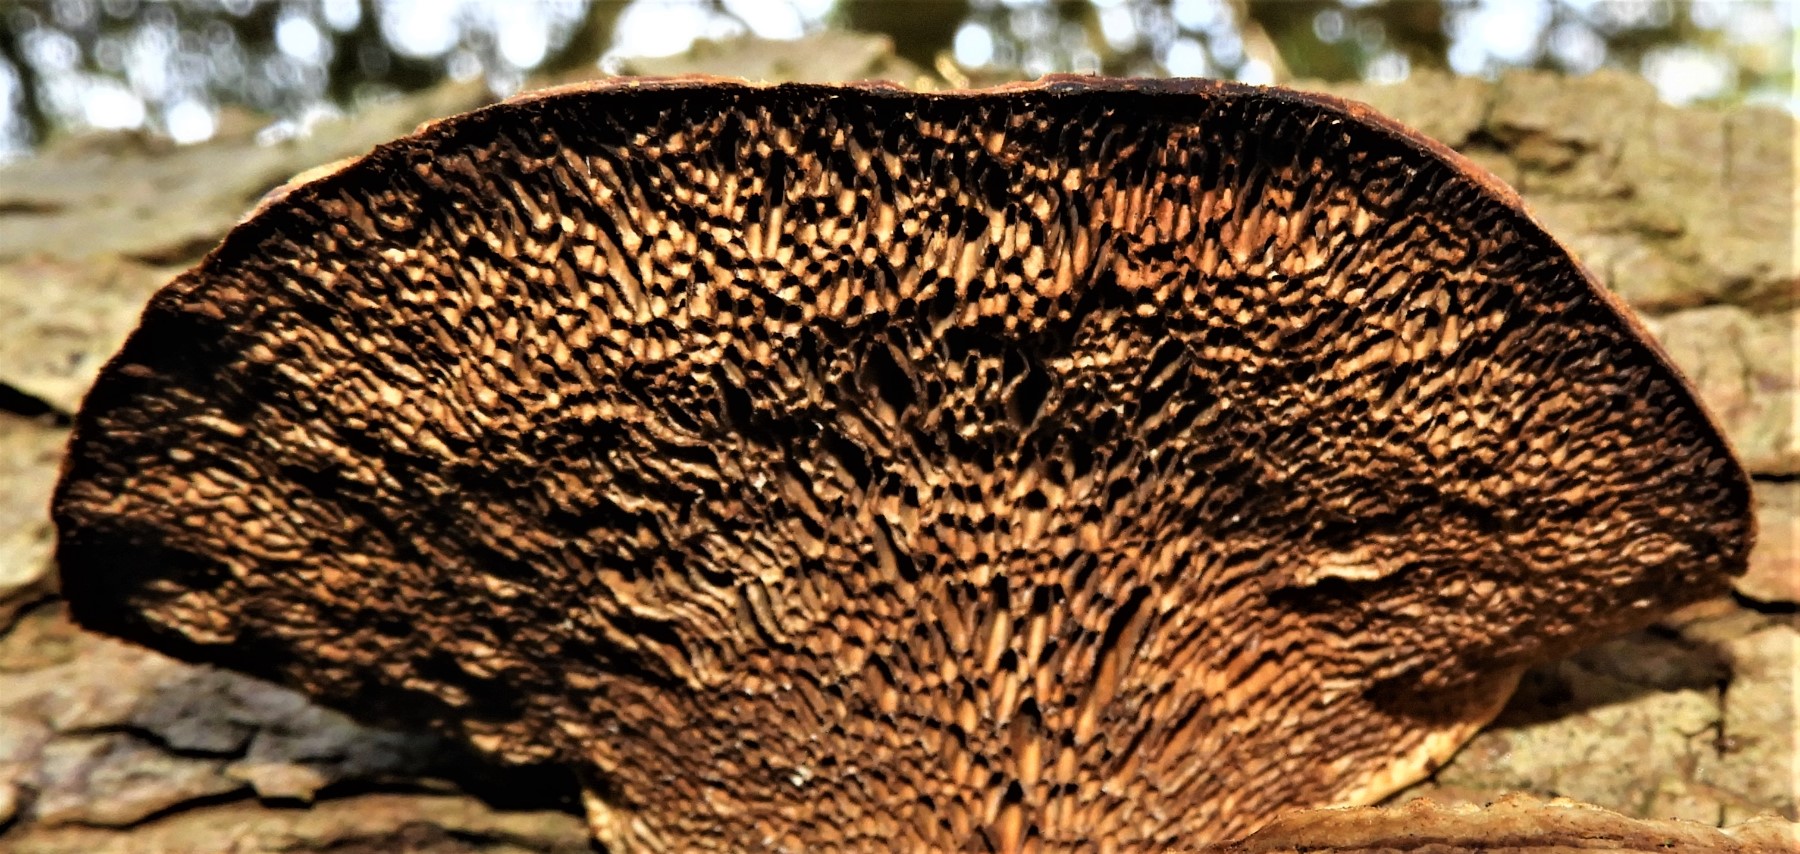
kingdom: Fungi
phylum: Basidiomycota
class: Agaricomycetes
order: Polyporales
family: Polyporaceae
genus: Daedaleopsis
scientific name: Daedaleopsis confragosa
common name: rødmende læderporesvamp
